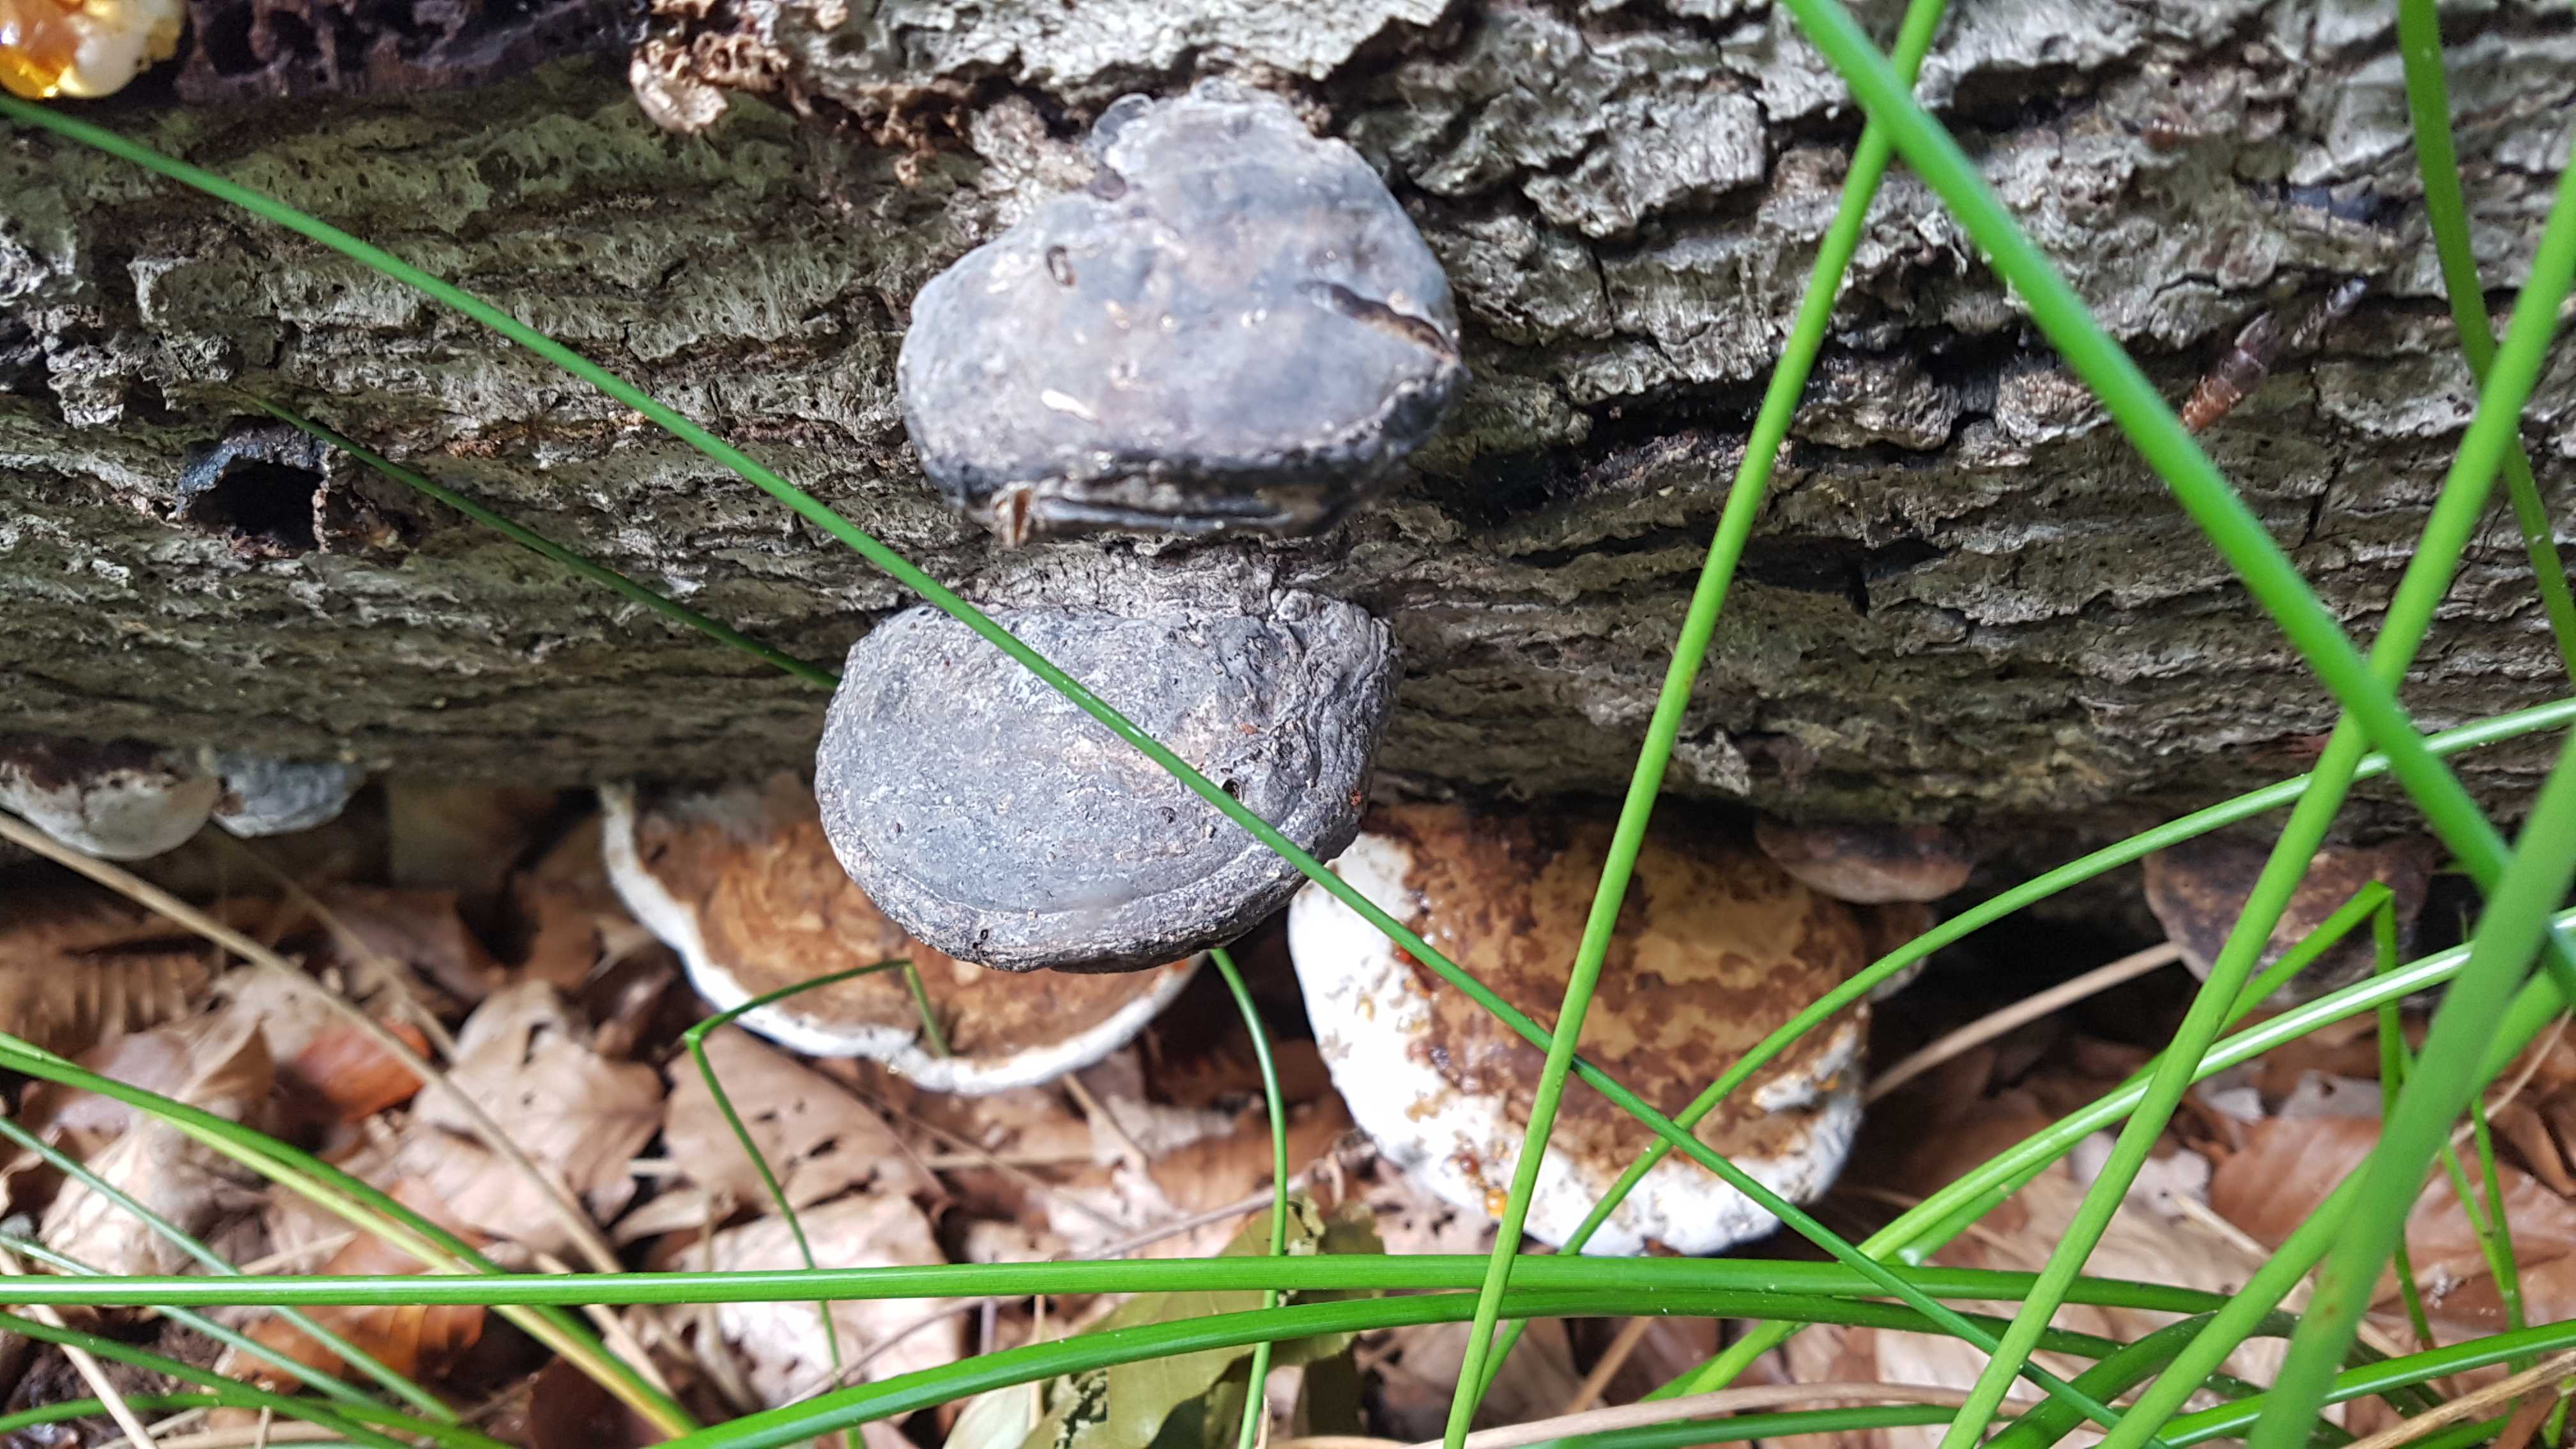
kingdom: Fungi
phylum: Basidiomycota
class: Agaricomycetes
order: Polyporales
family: Polyporaceae
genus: Fomes
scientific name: Fomes fomentarius
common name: tøndersvamp
